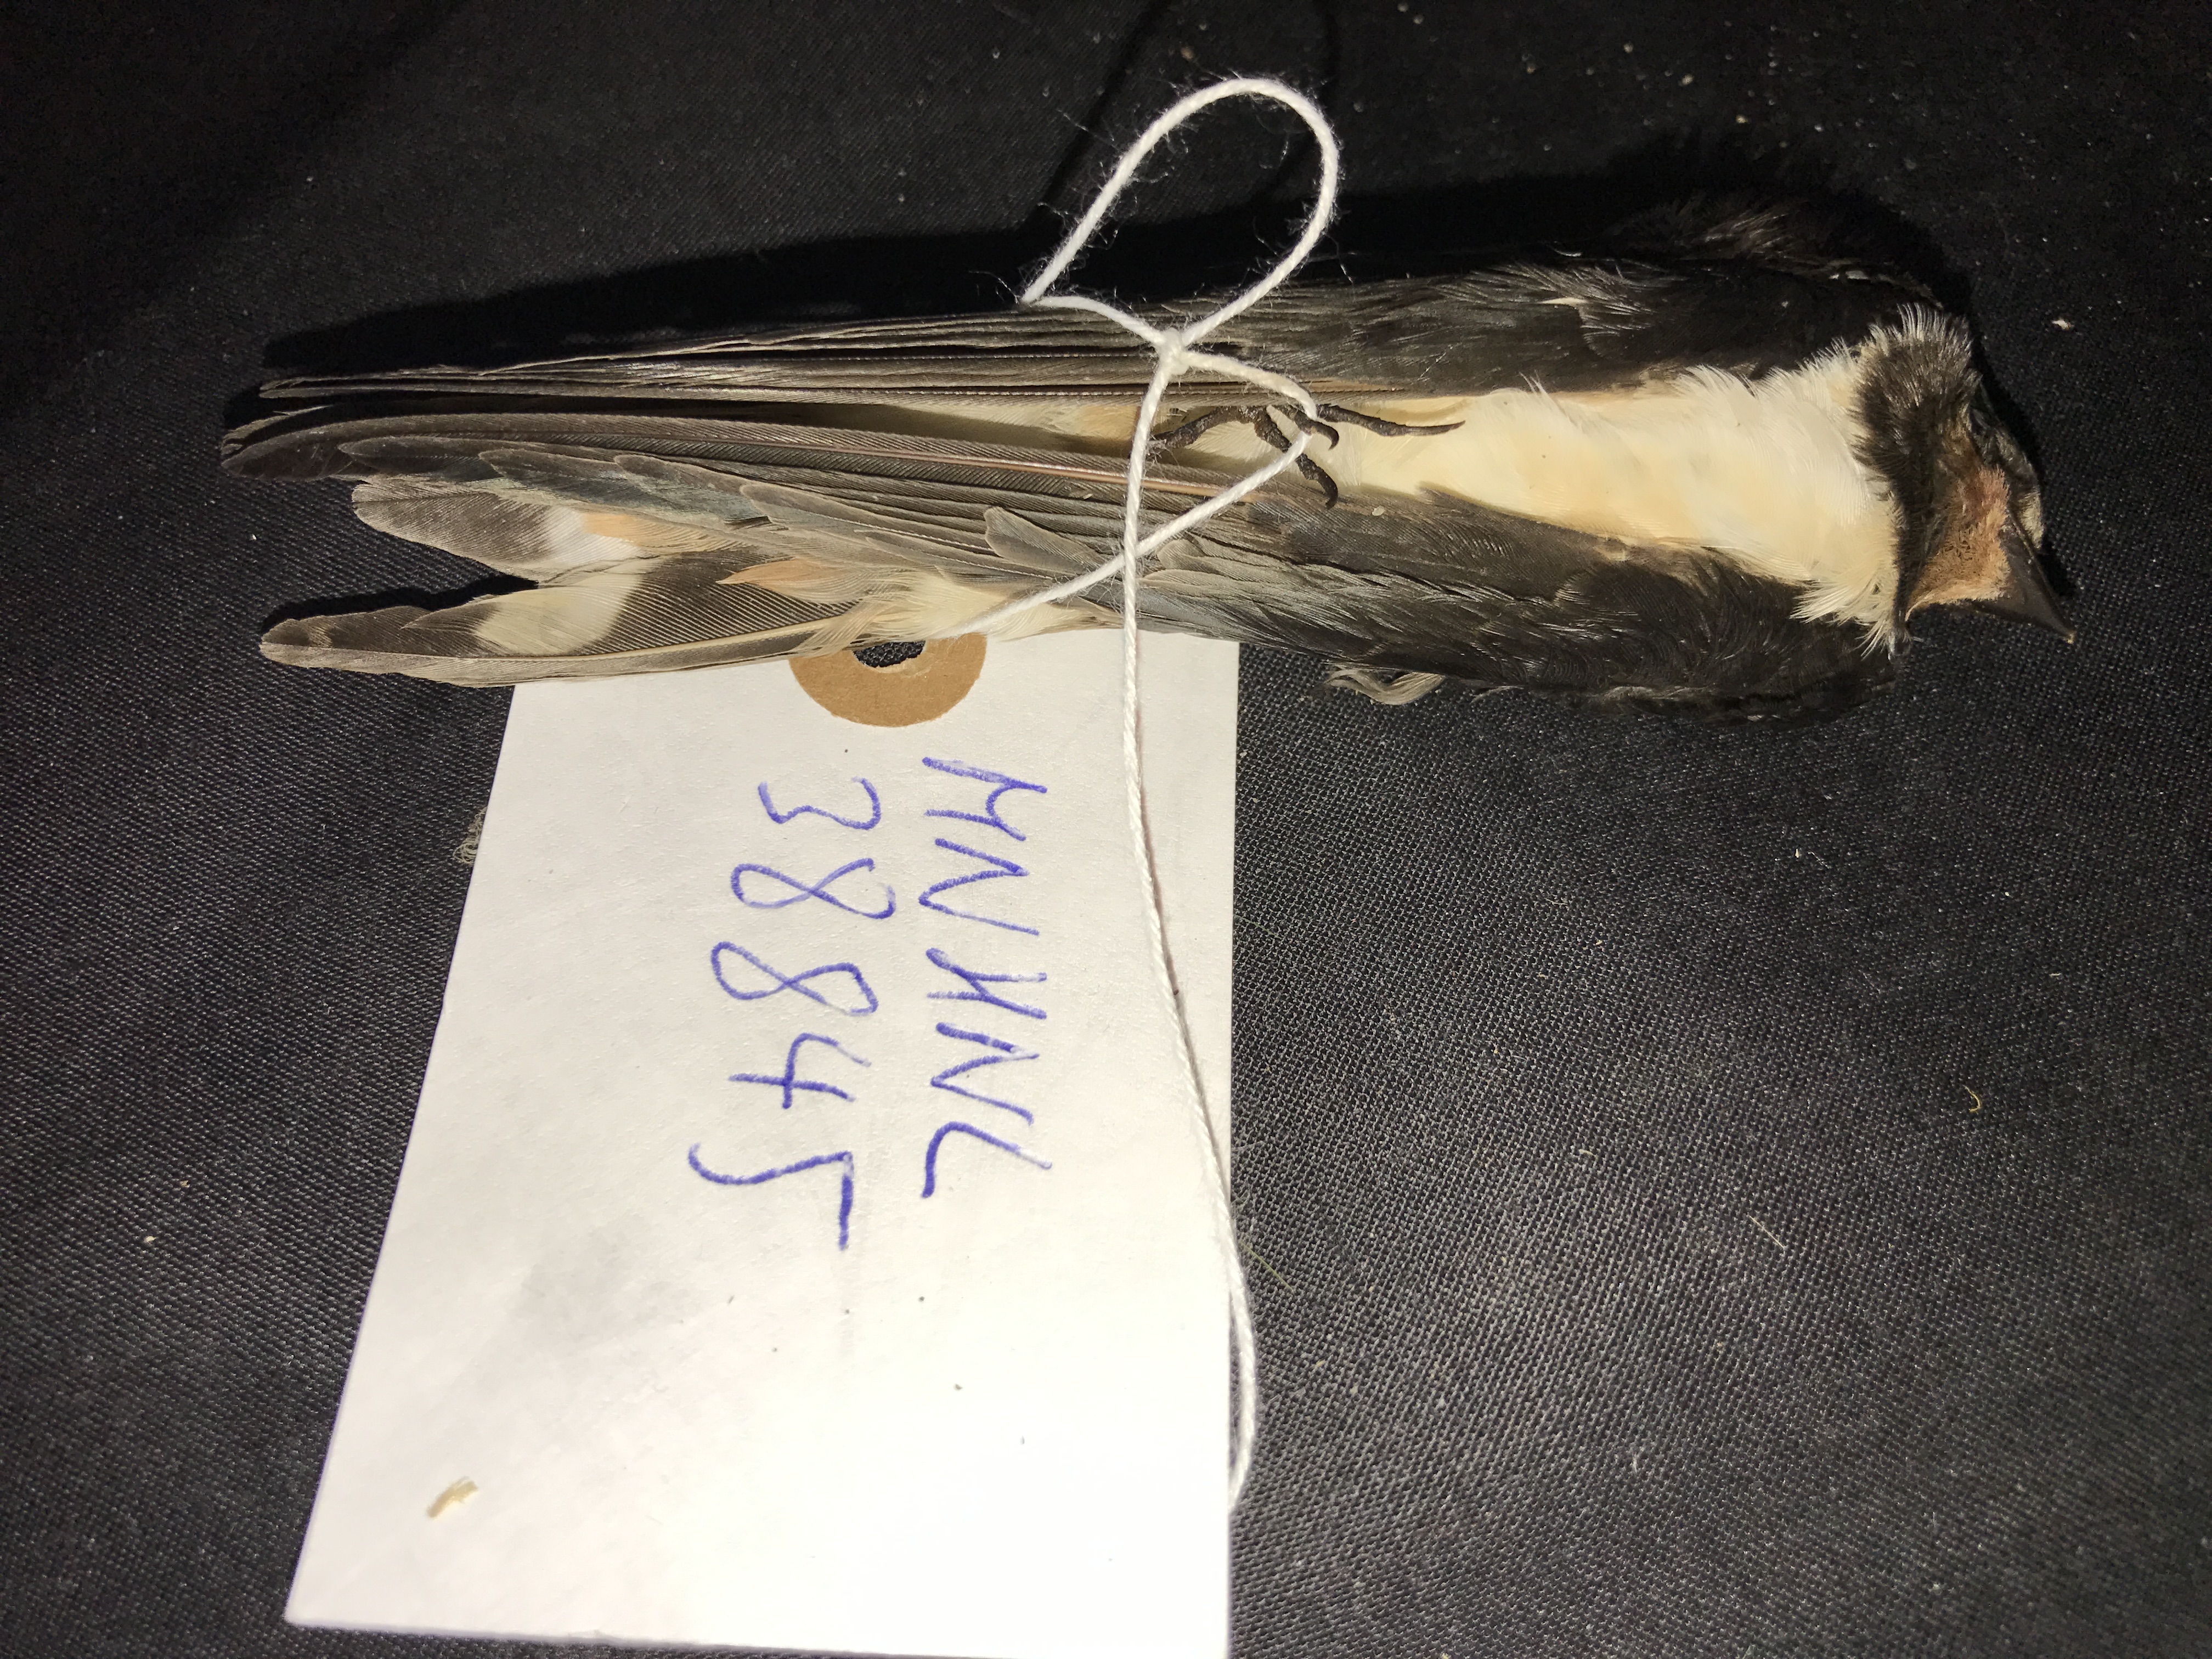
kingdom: Animalia
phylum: Chordata
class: Aves
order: Passeriformes
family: Hirundinidae
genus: Hirundo
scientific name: Hirundo rustica
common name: Barn swallow
